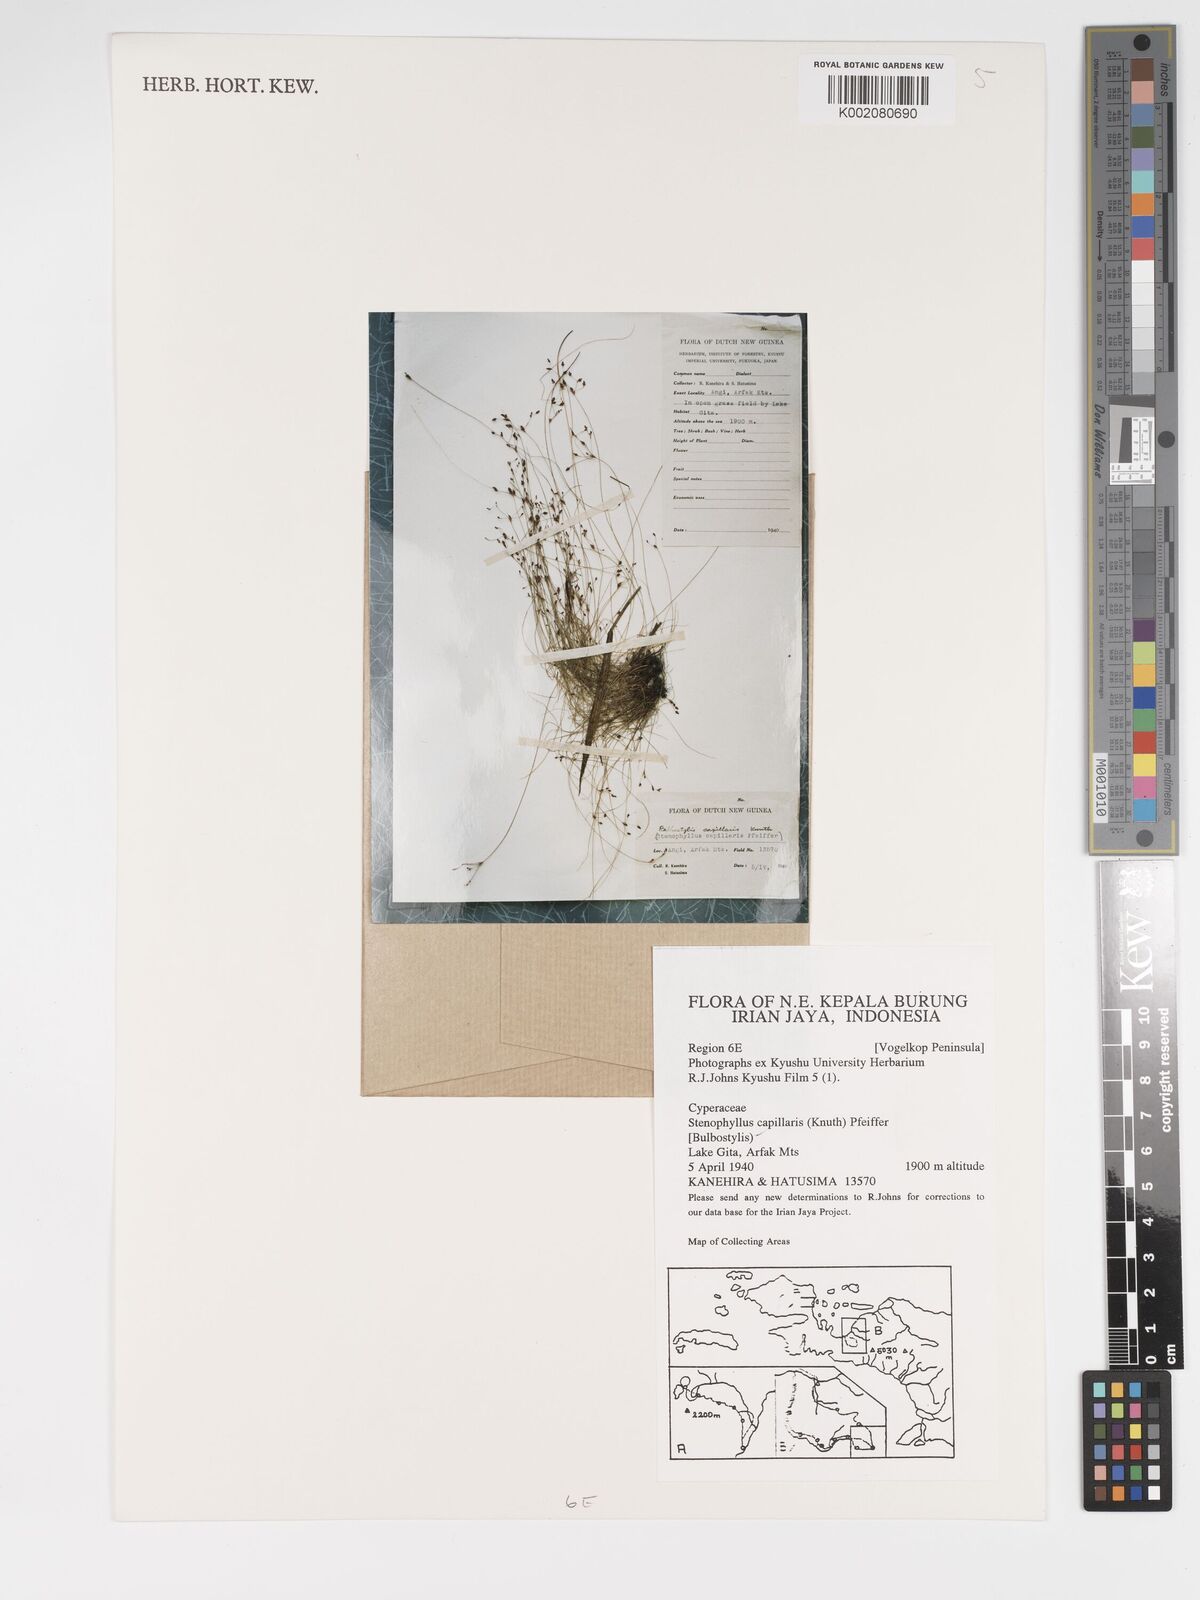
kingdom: Plantae
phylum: Tracheophyta
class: Liliopsida
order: Poales
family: Cyperaceae
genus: Bulbostylis
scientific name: Bulbostylis capillaris
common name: Densetuft hairsedge
